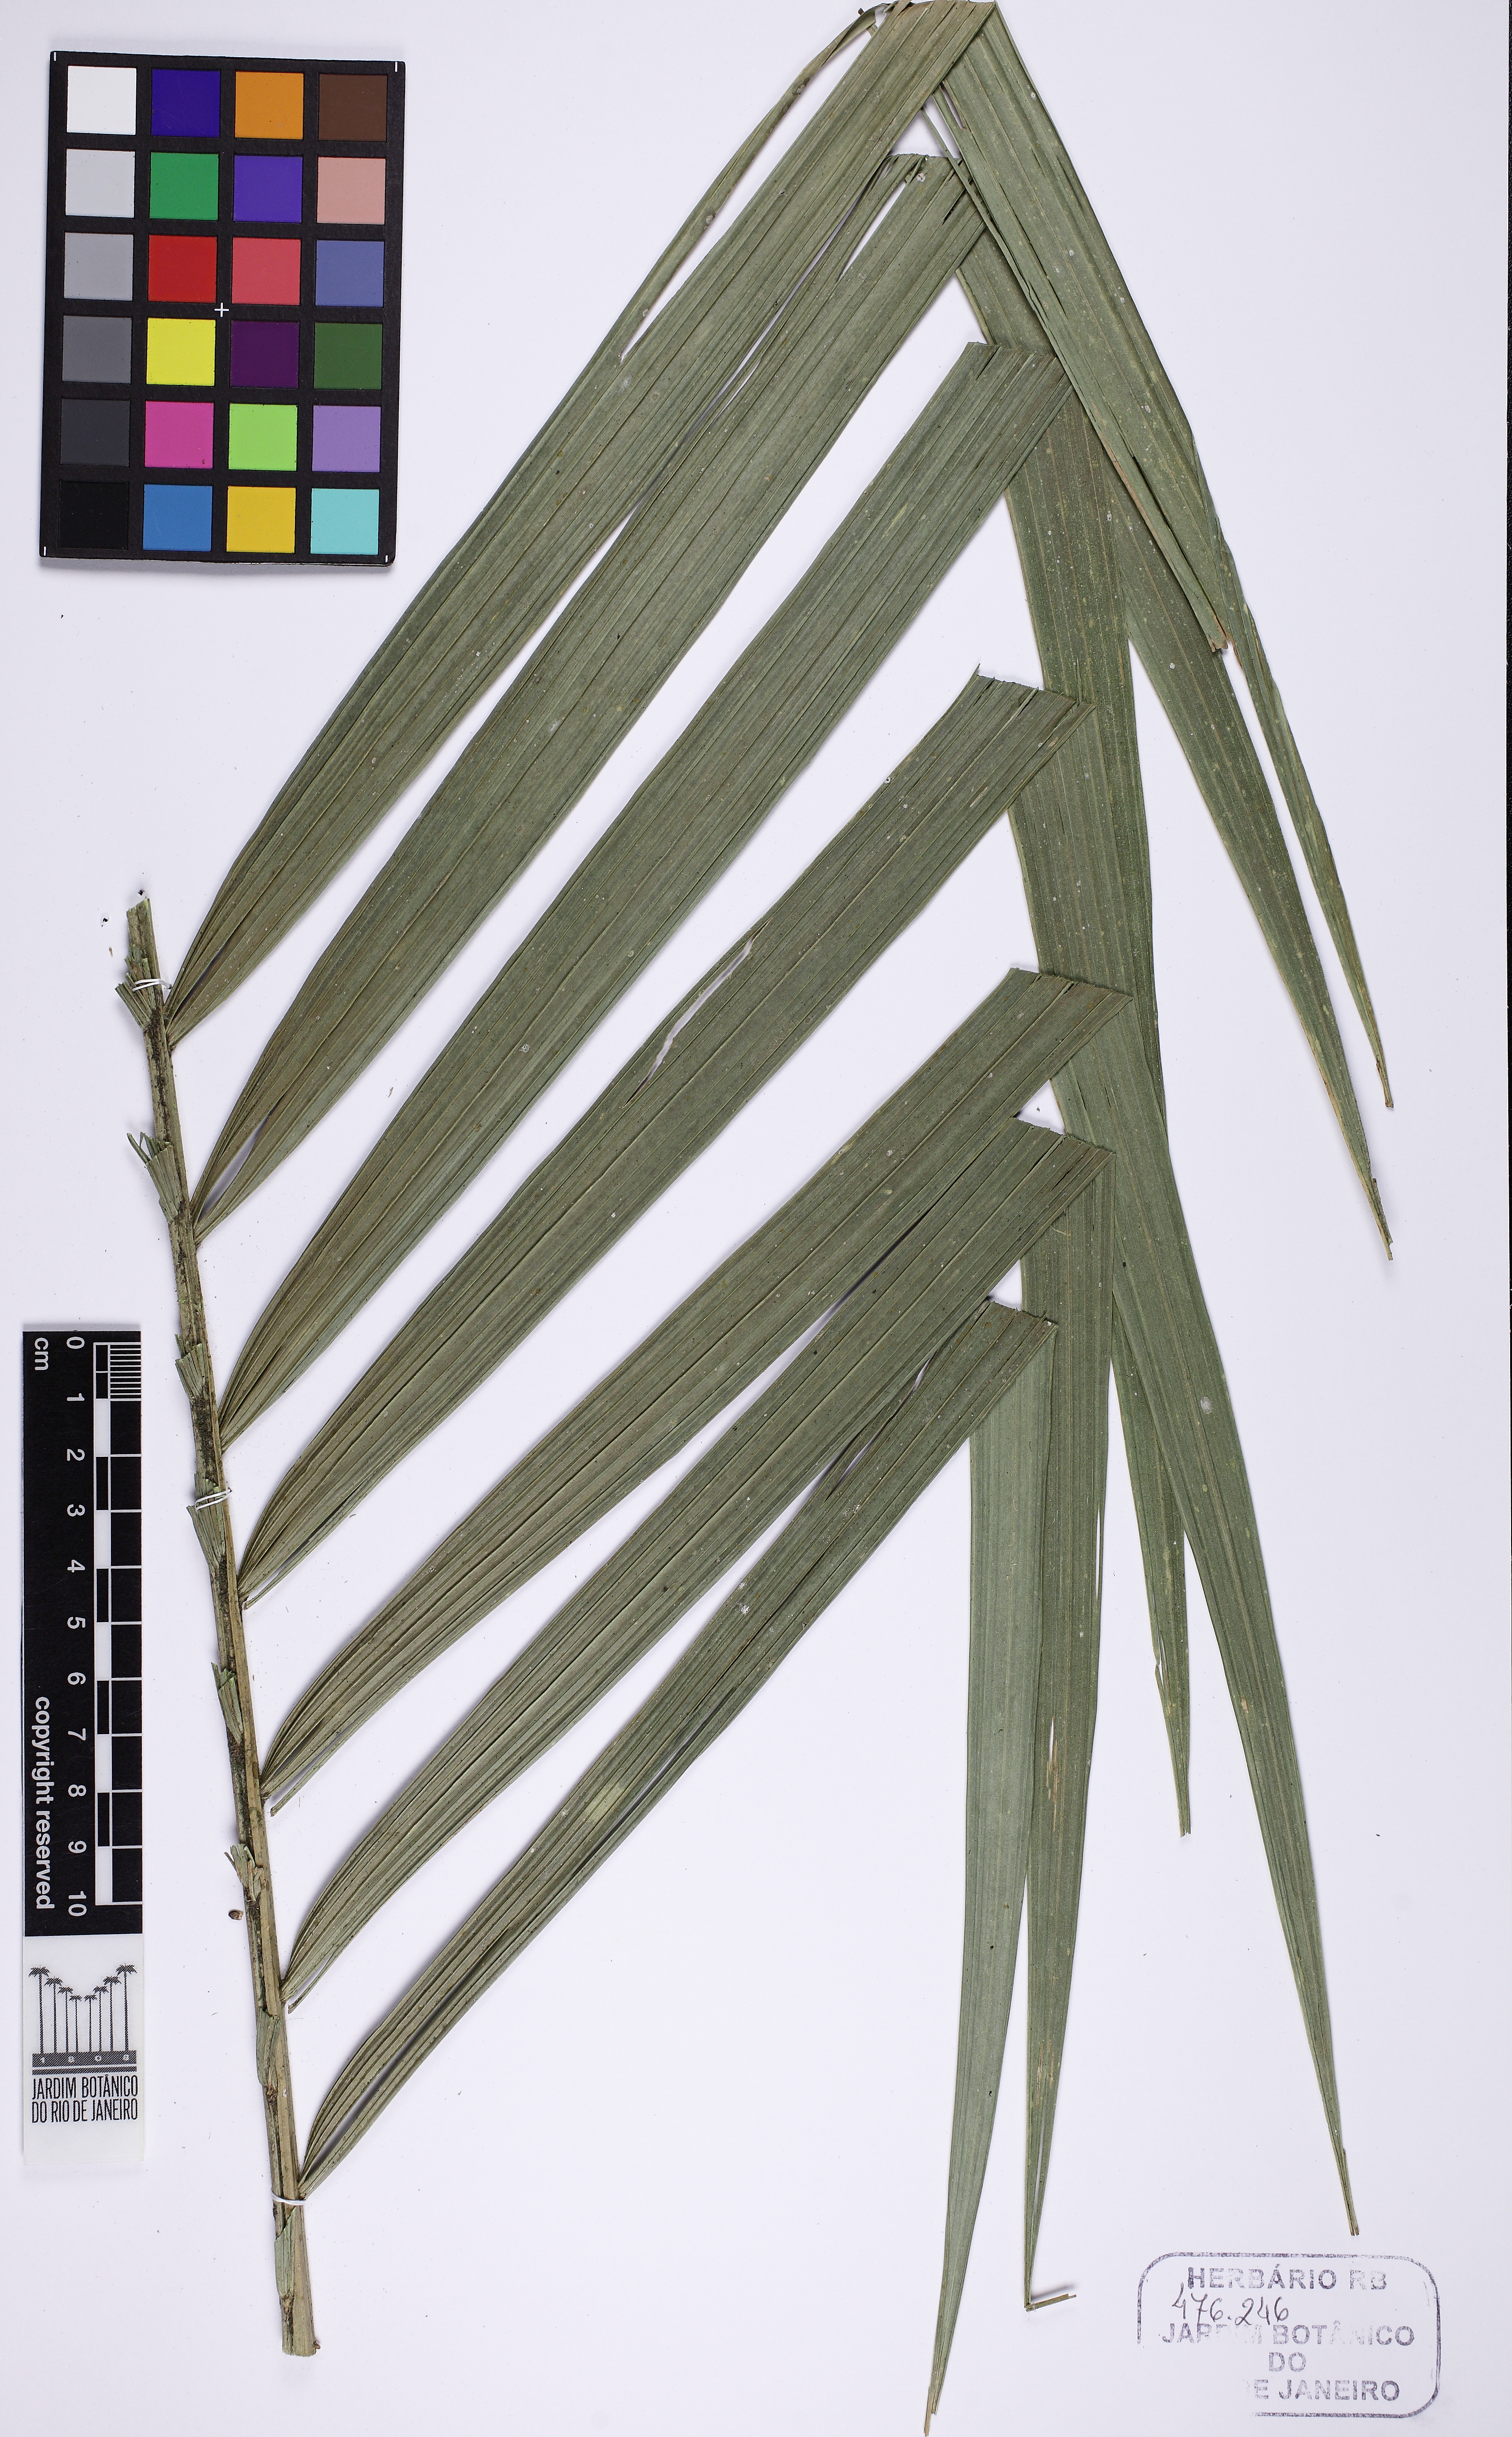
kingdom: Plantae
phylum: Tracheophyta
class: Liliopsida
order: Arecales
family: Arecaceae
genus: Geonoma
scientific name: Geonoma schottiana
